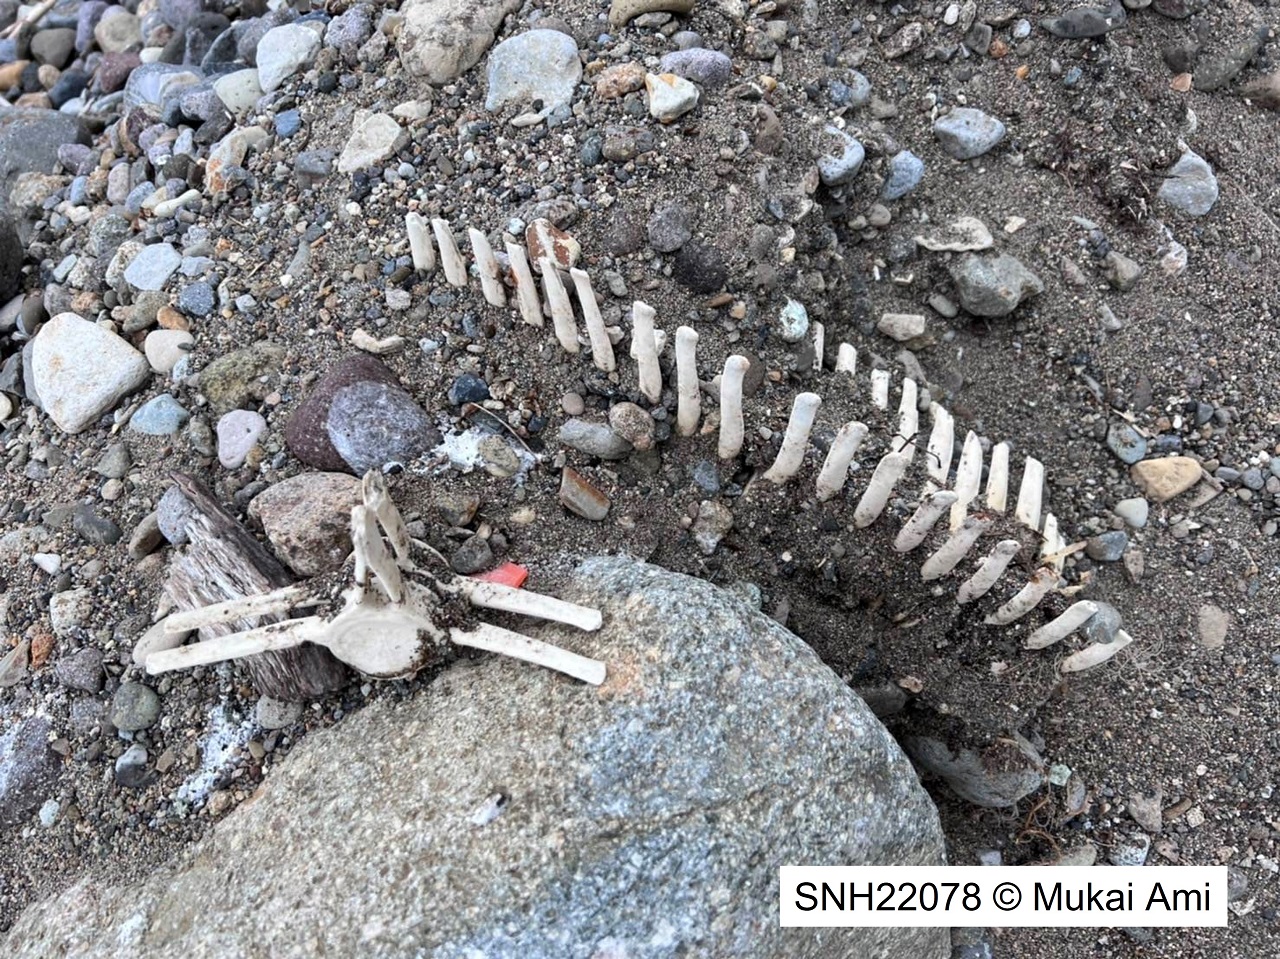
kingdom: Animalia
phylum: Chordata
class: Mammalia
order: Cetacea
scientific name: Cetacea
